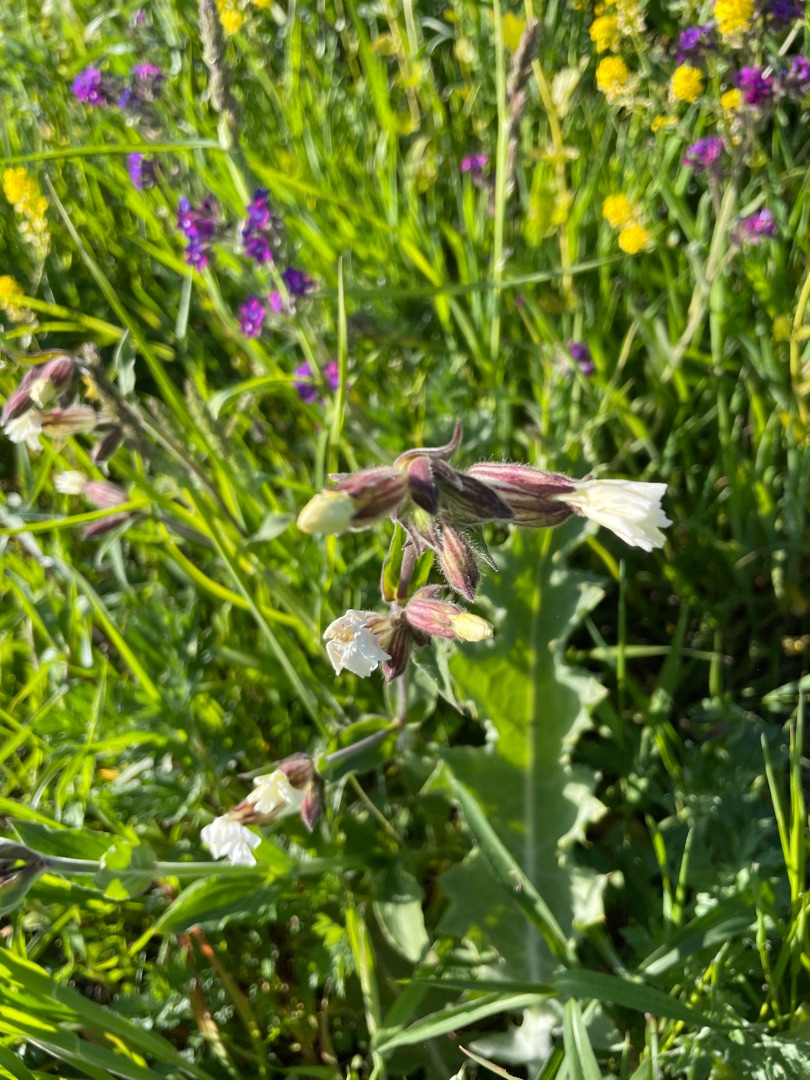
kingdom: Plantae
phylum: Tracheophyta
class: Magnoliopsida
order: Caryophyllales
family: Caryophyllaceae
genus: Silene
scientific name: Silene latifolia
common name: Aftenpragtstjerne
